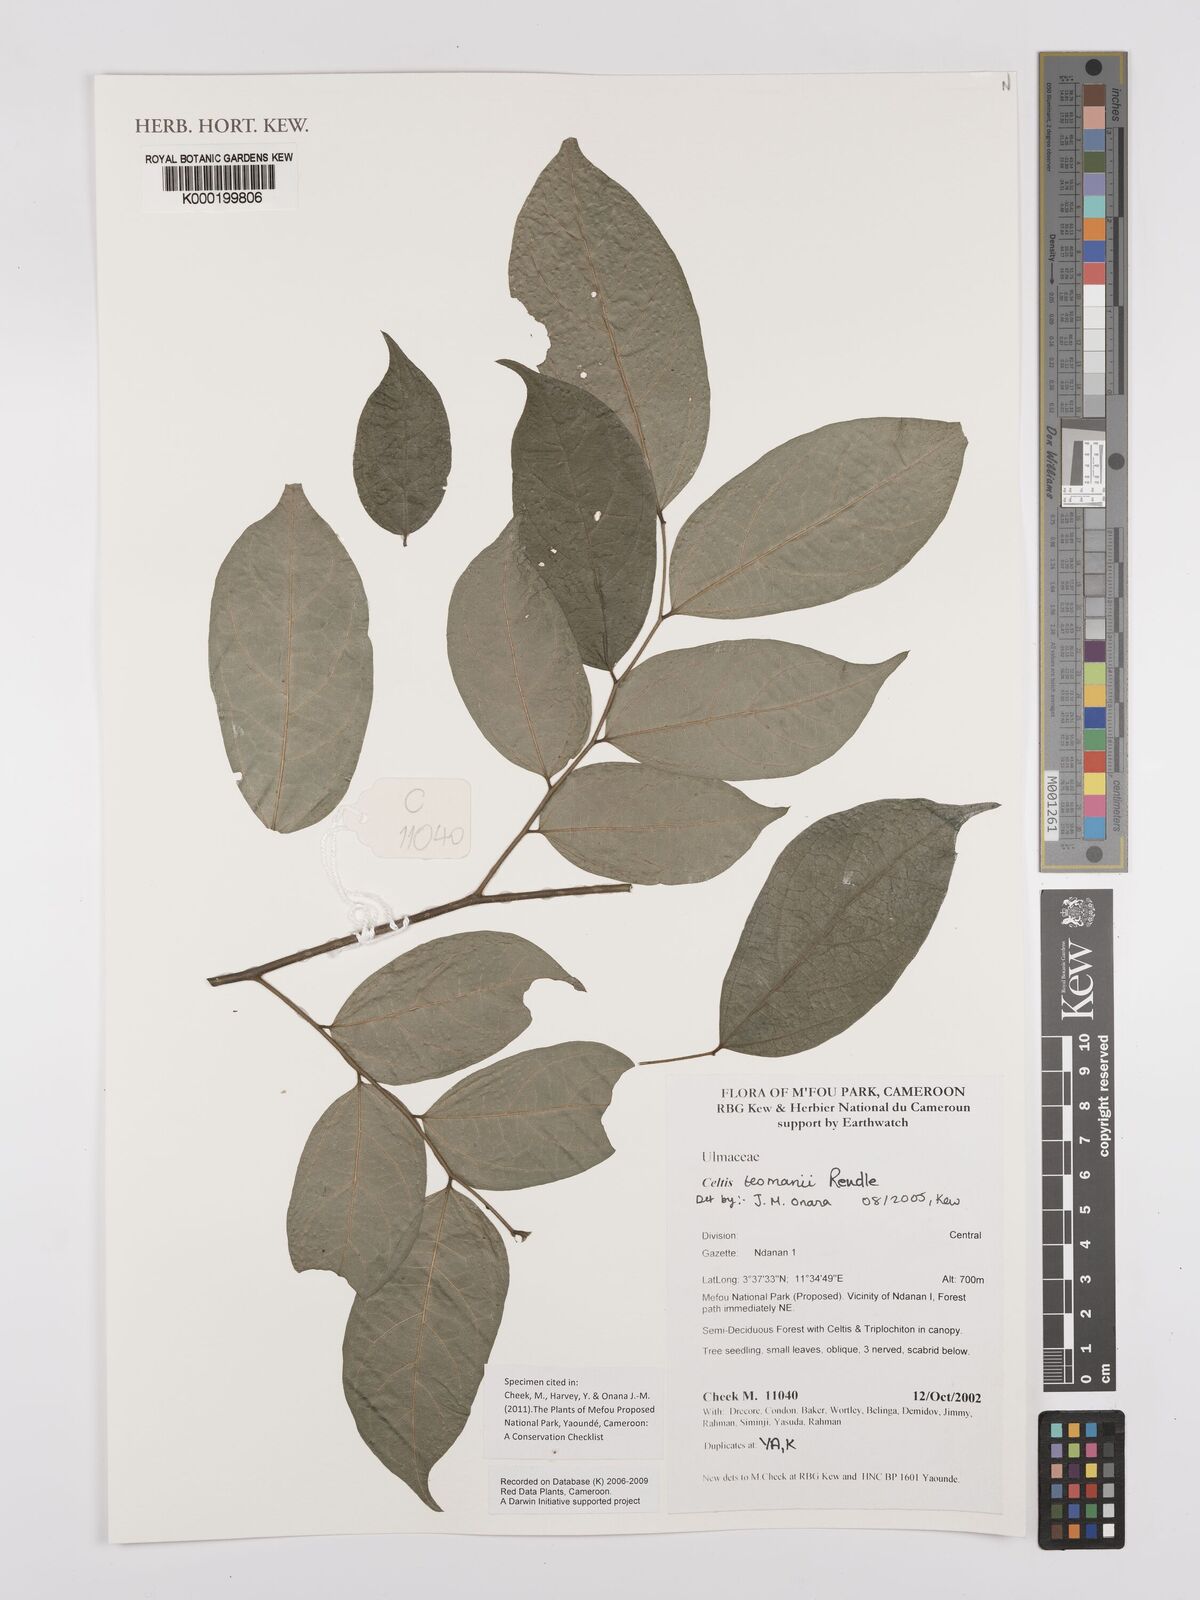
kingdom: Plantae
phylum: Tracheophyta
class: Magnoliopsida
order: Rosales
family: Cannabaceae
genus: Celtis
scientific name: Celtis tessmannii
